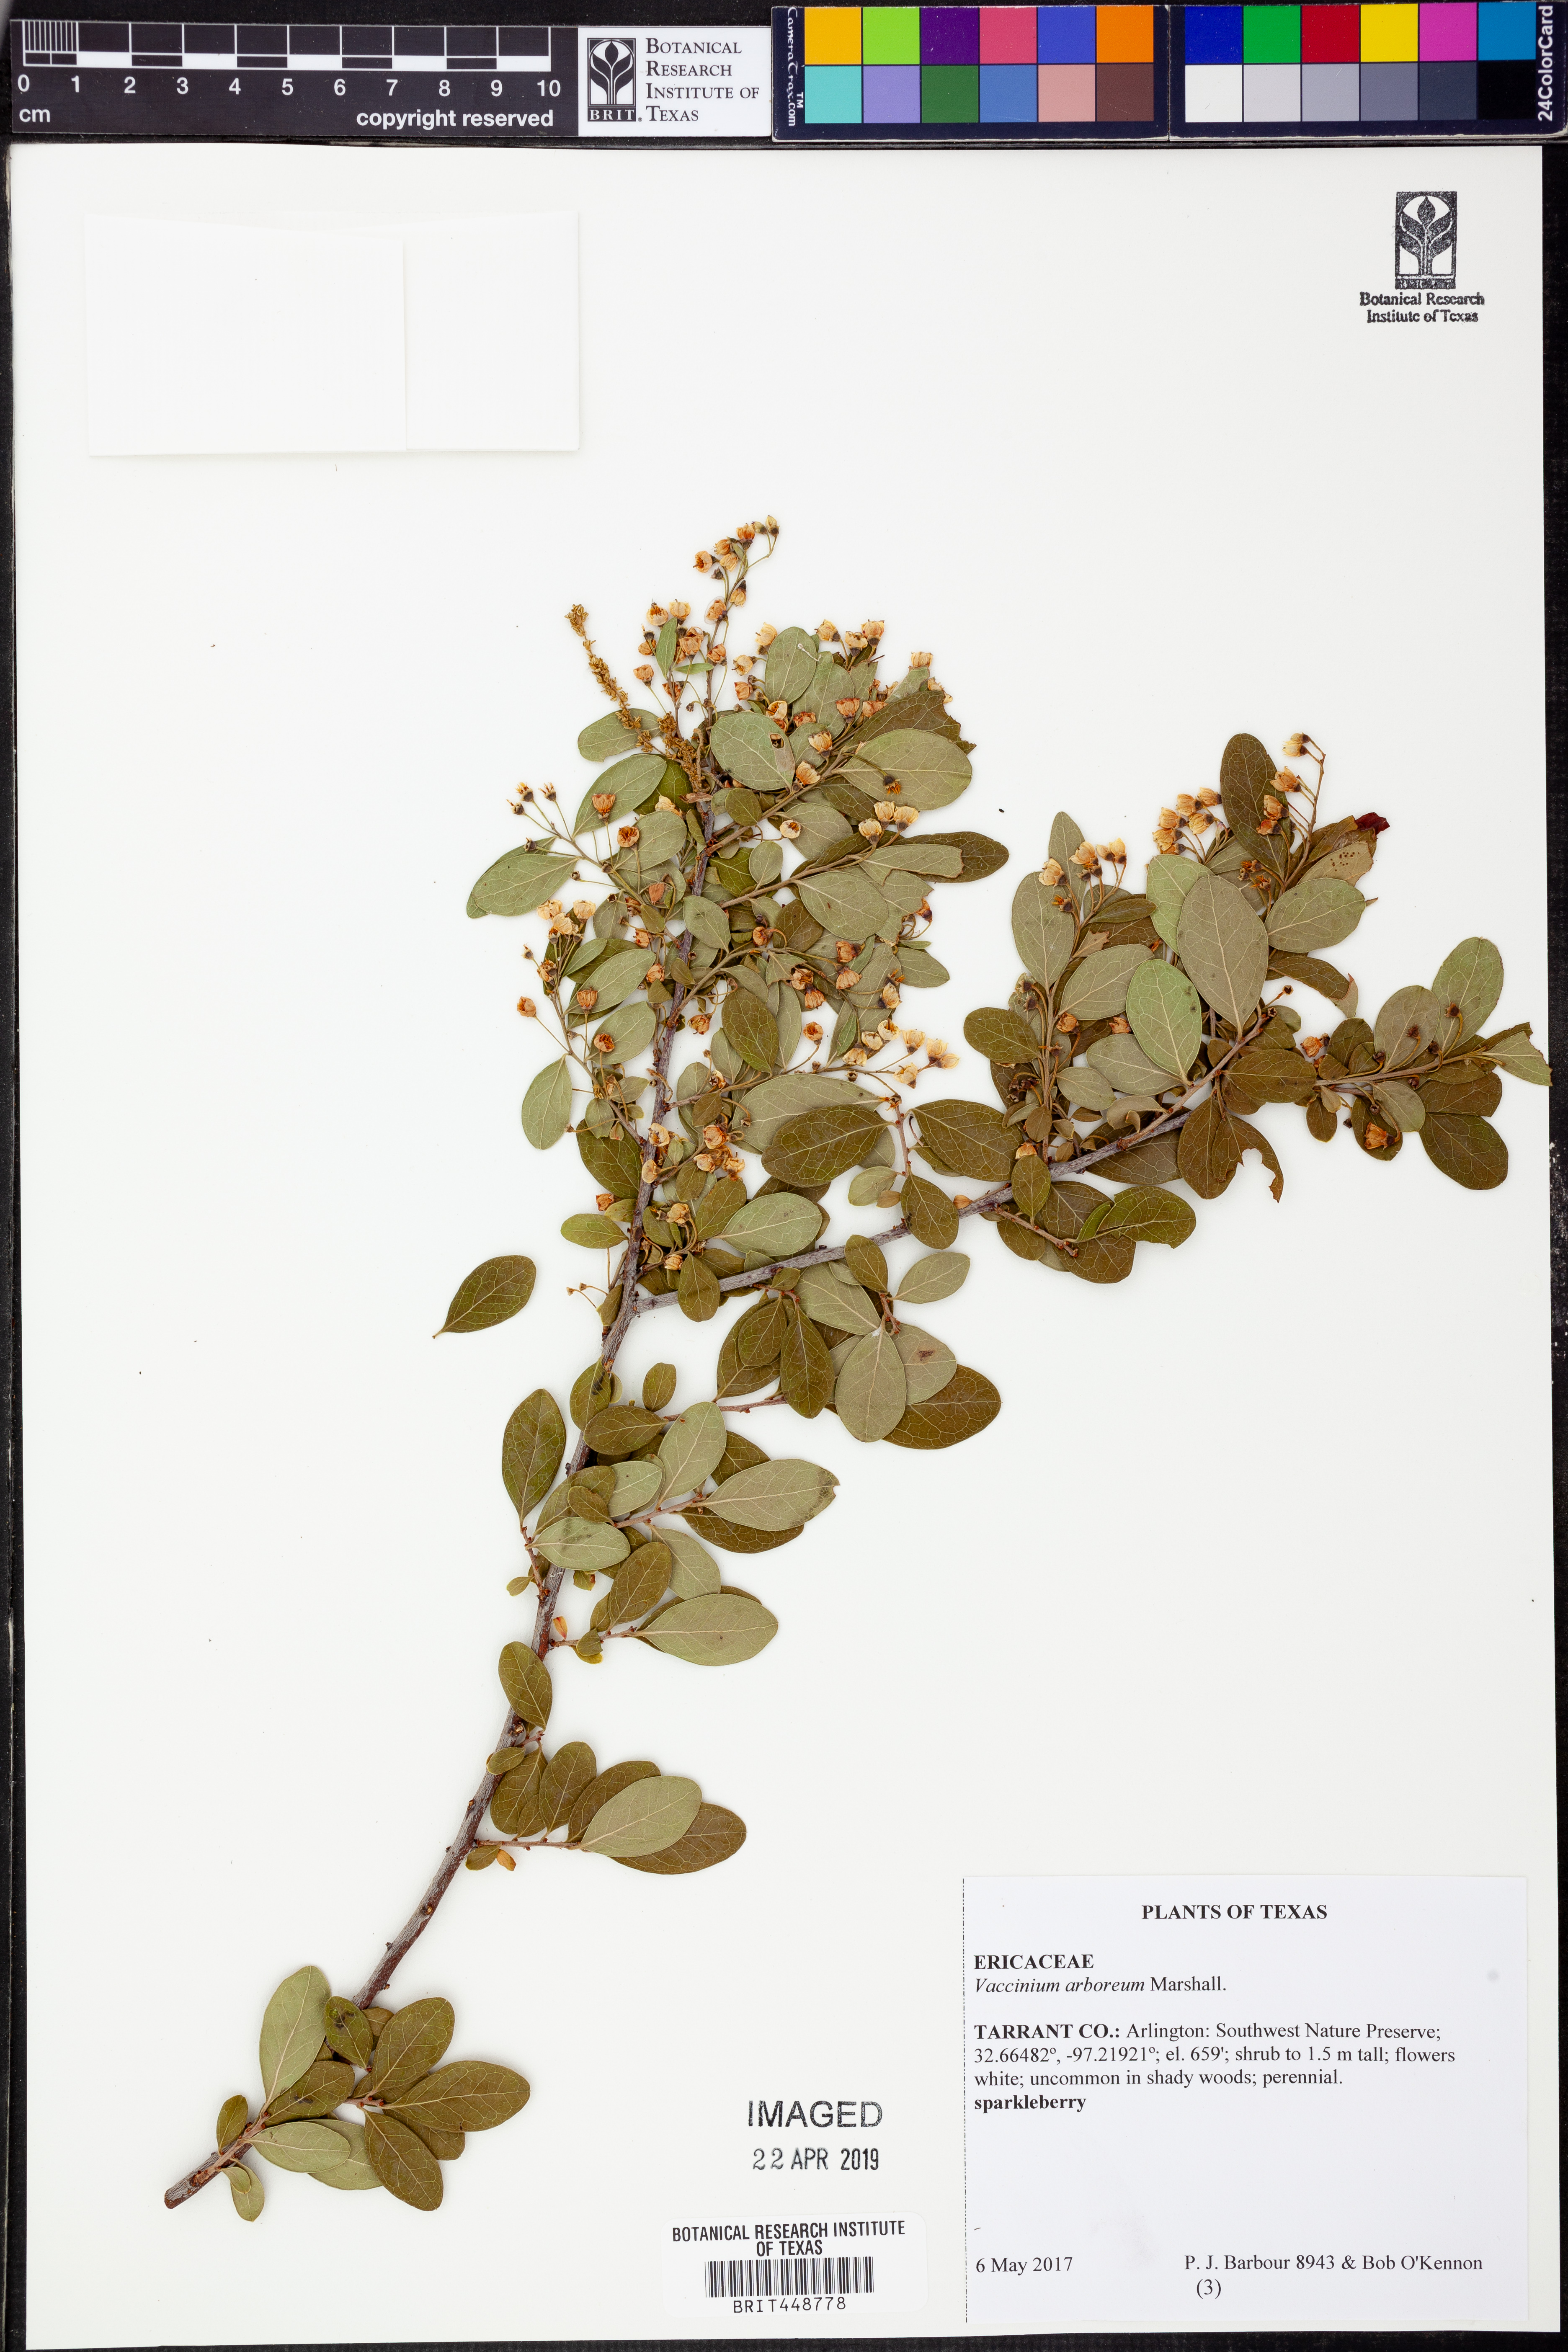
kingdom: Plantae
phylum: Tracheophyta
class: Magnoliopsida
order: Ericales
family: Ericaceae
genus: Vaccinium
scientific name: Vaccinium arboreum
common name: Farkleberry
